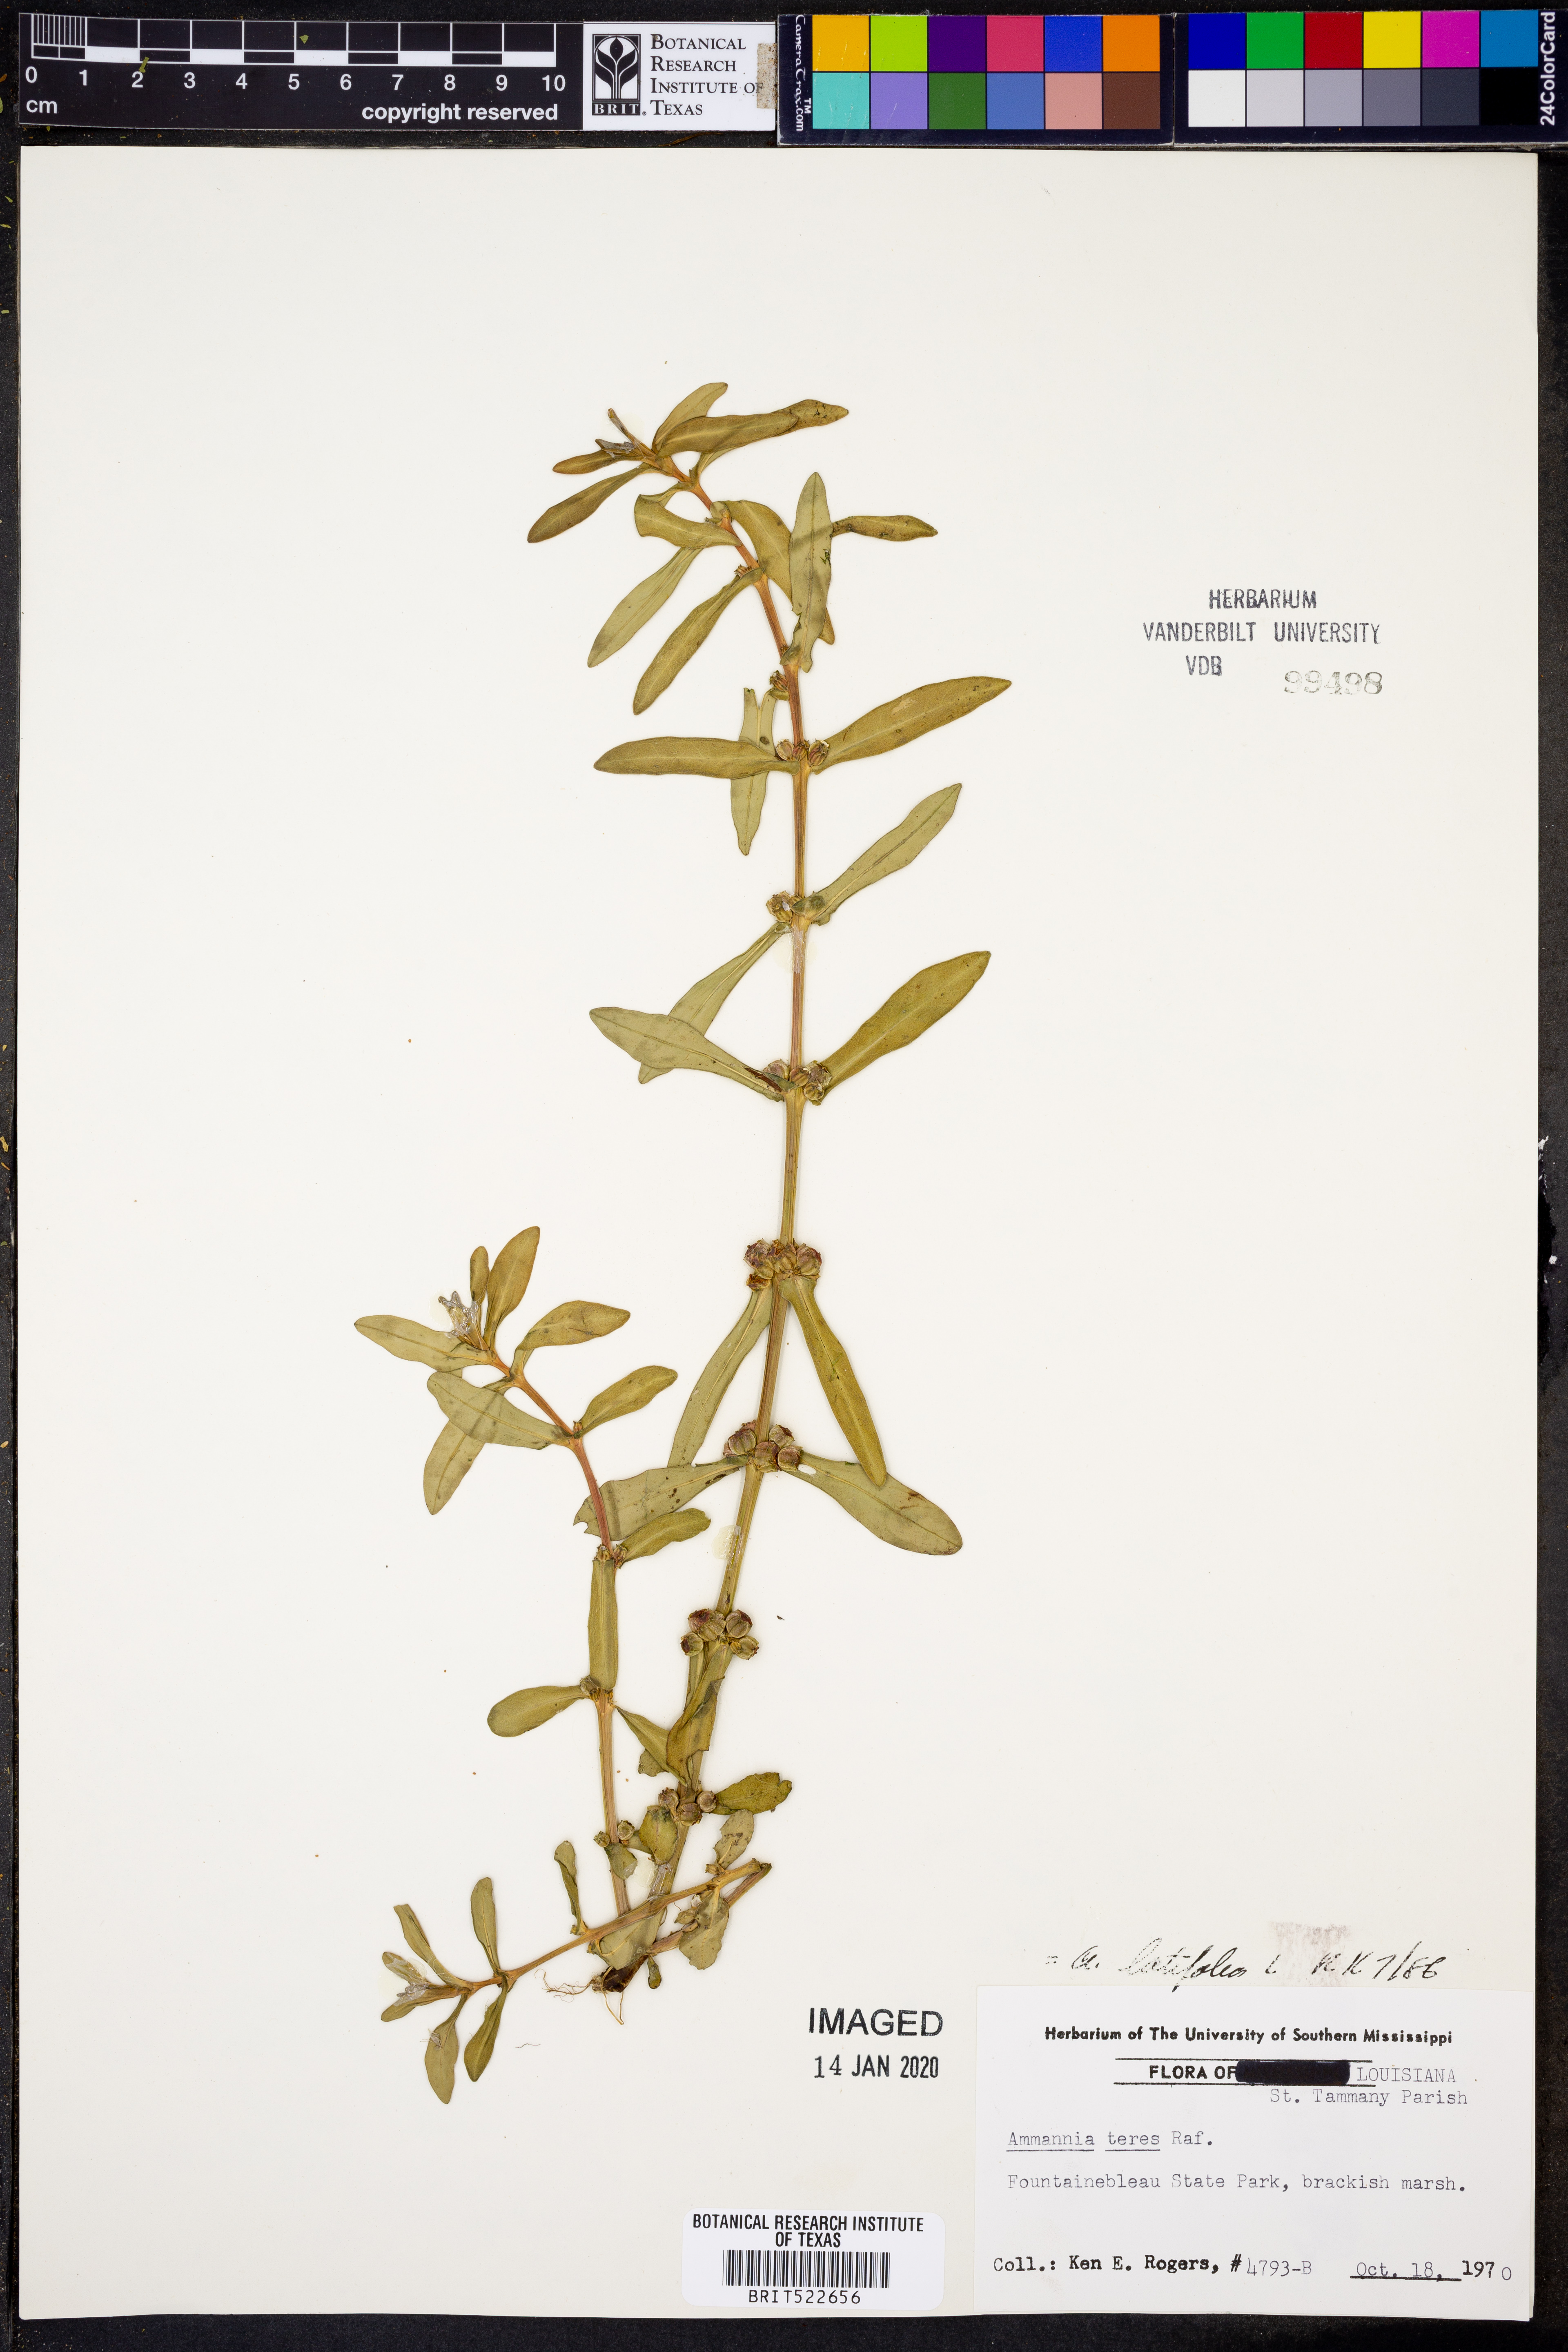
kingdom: Plantae
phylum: Tracheophyta
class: Magnoliopsida
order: Myrtales
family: Lythraceae
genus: Ammannia
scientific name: Ammannia latifolia
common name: Toothcup
